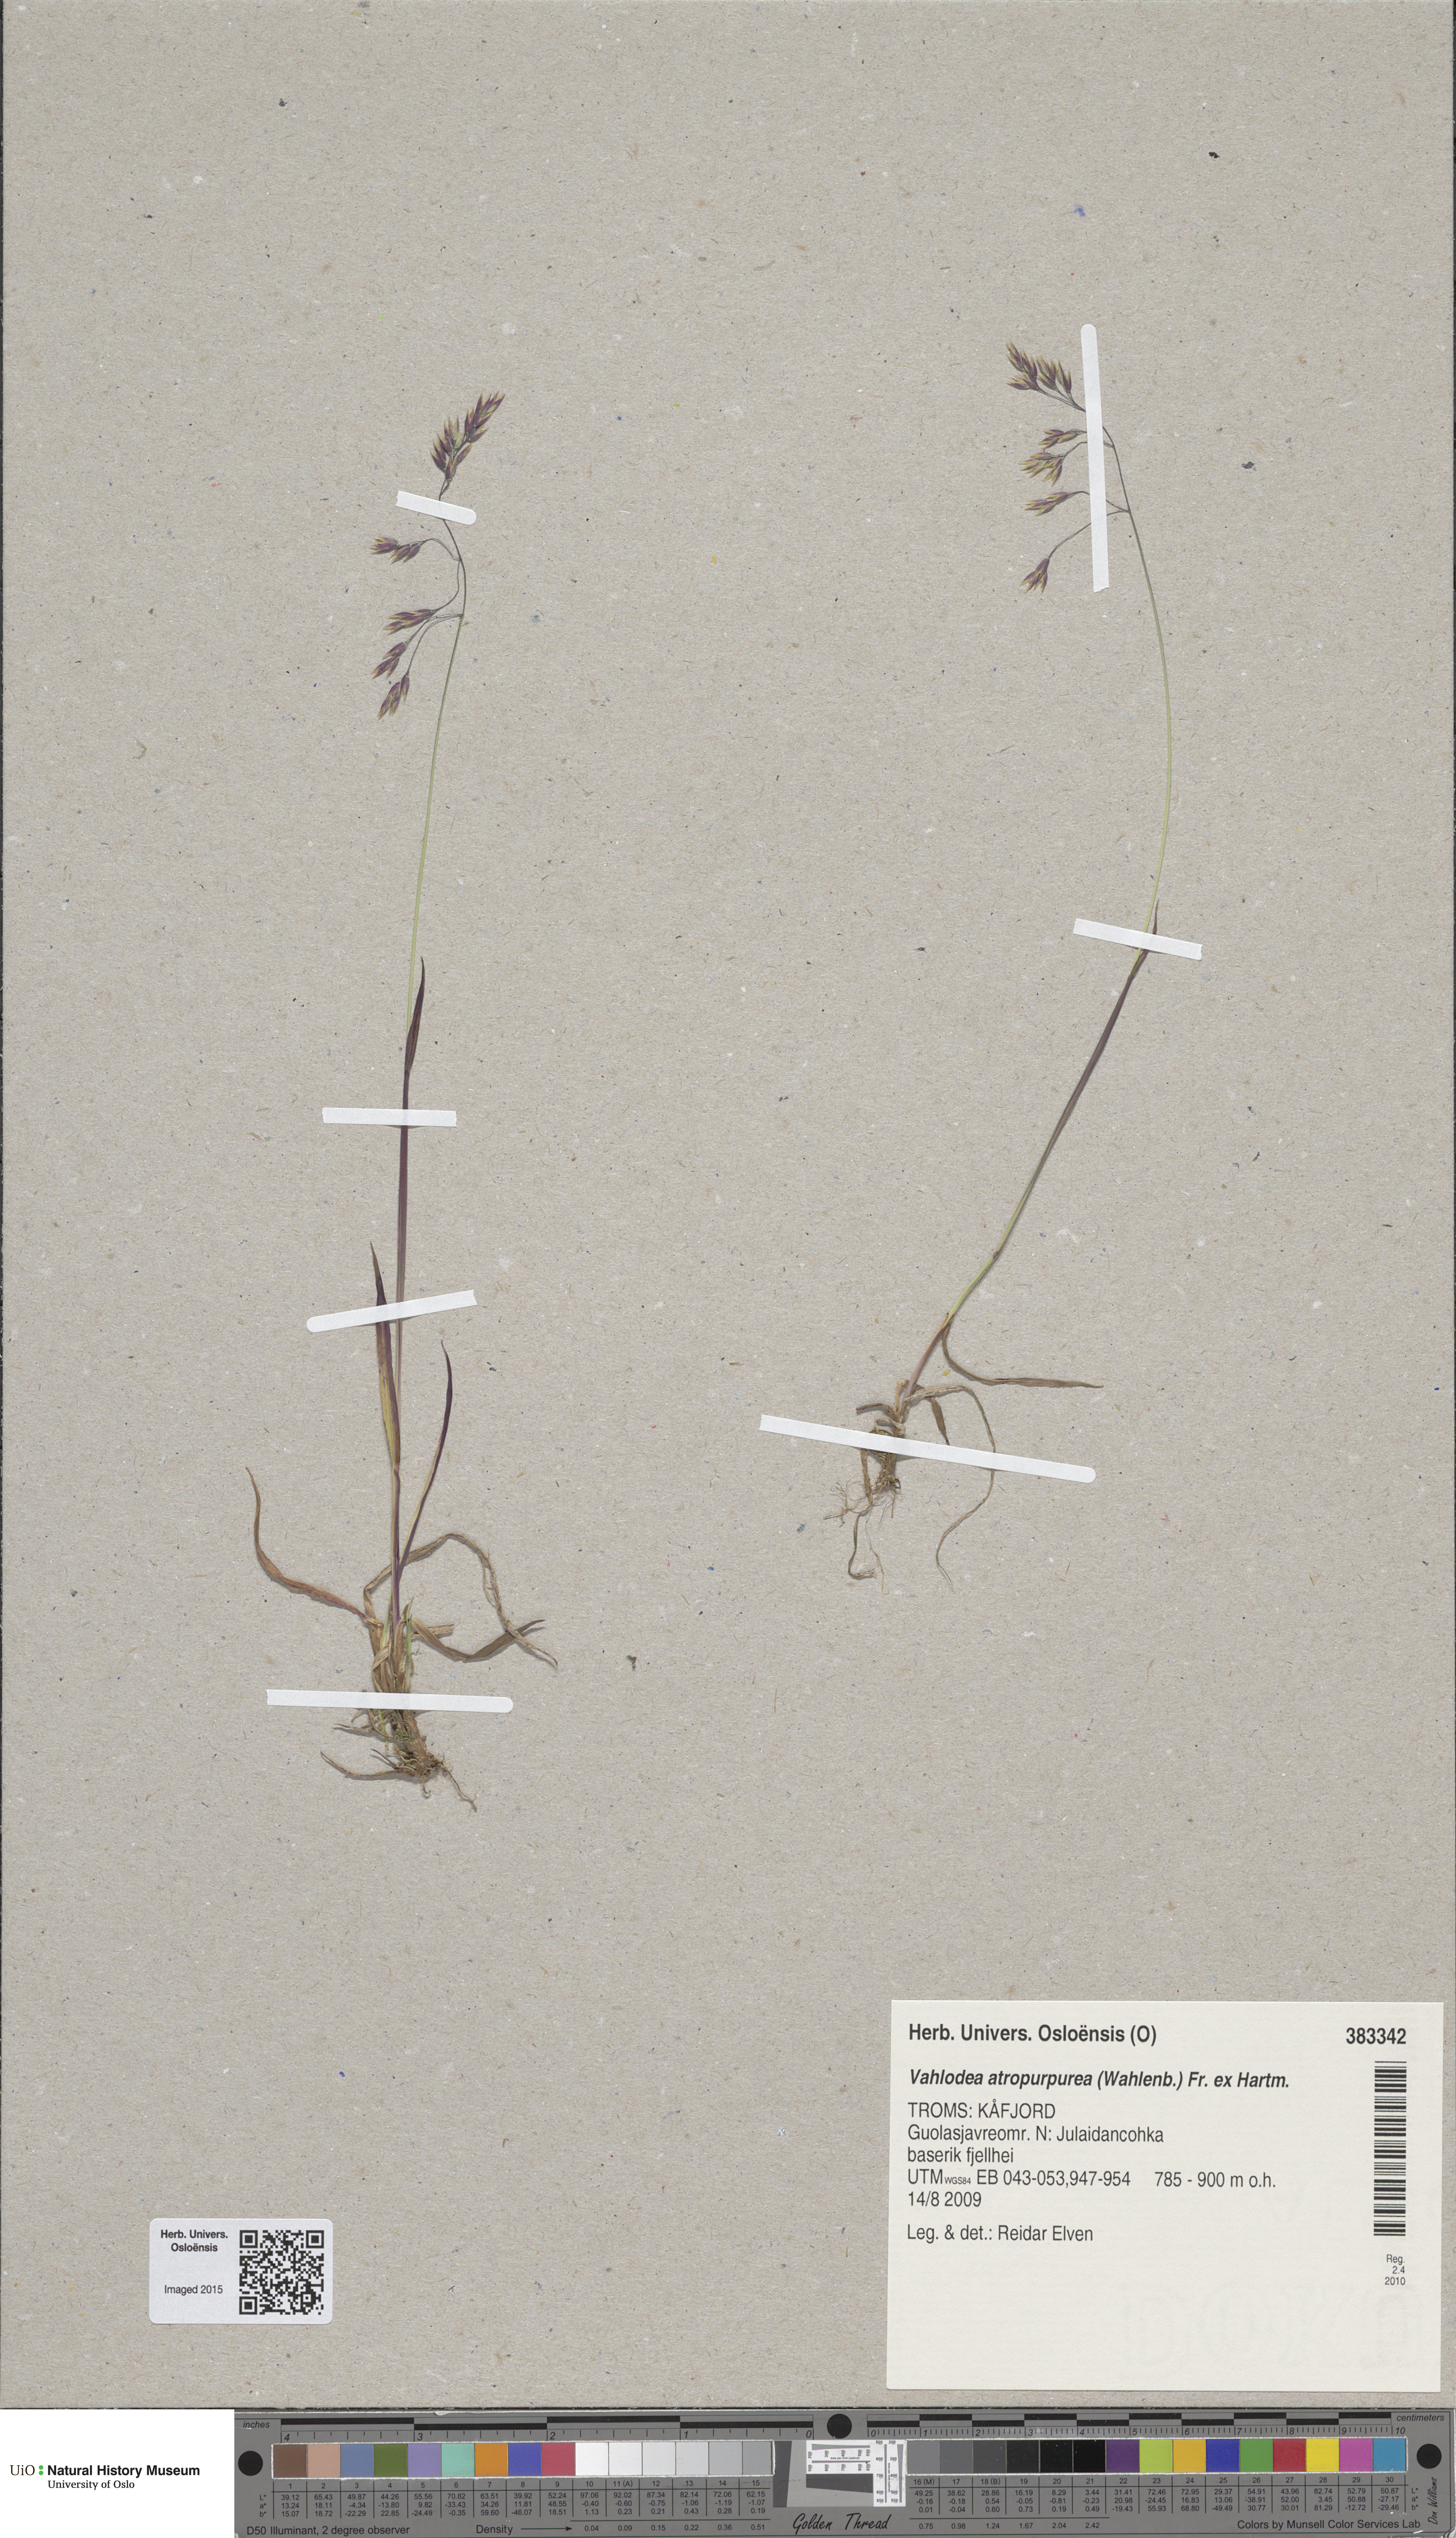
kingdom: Plantae
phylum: Tracheophyta
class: Liliopsida
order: Poales
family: Poaceae
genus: Vahlodea
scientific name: Vahlodea atropurpurea
